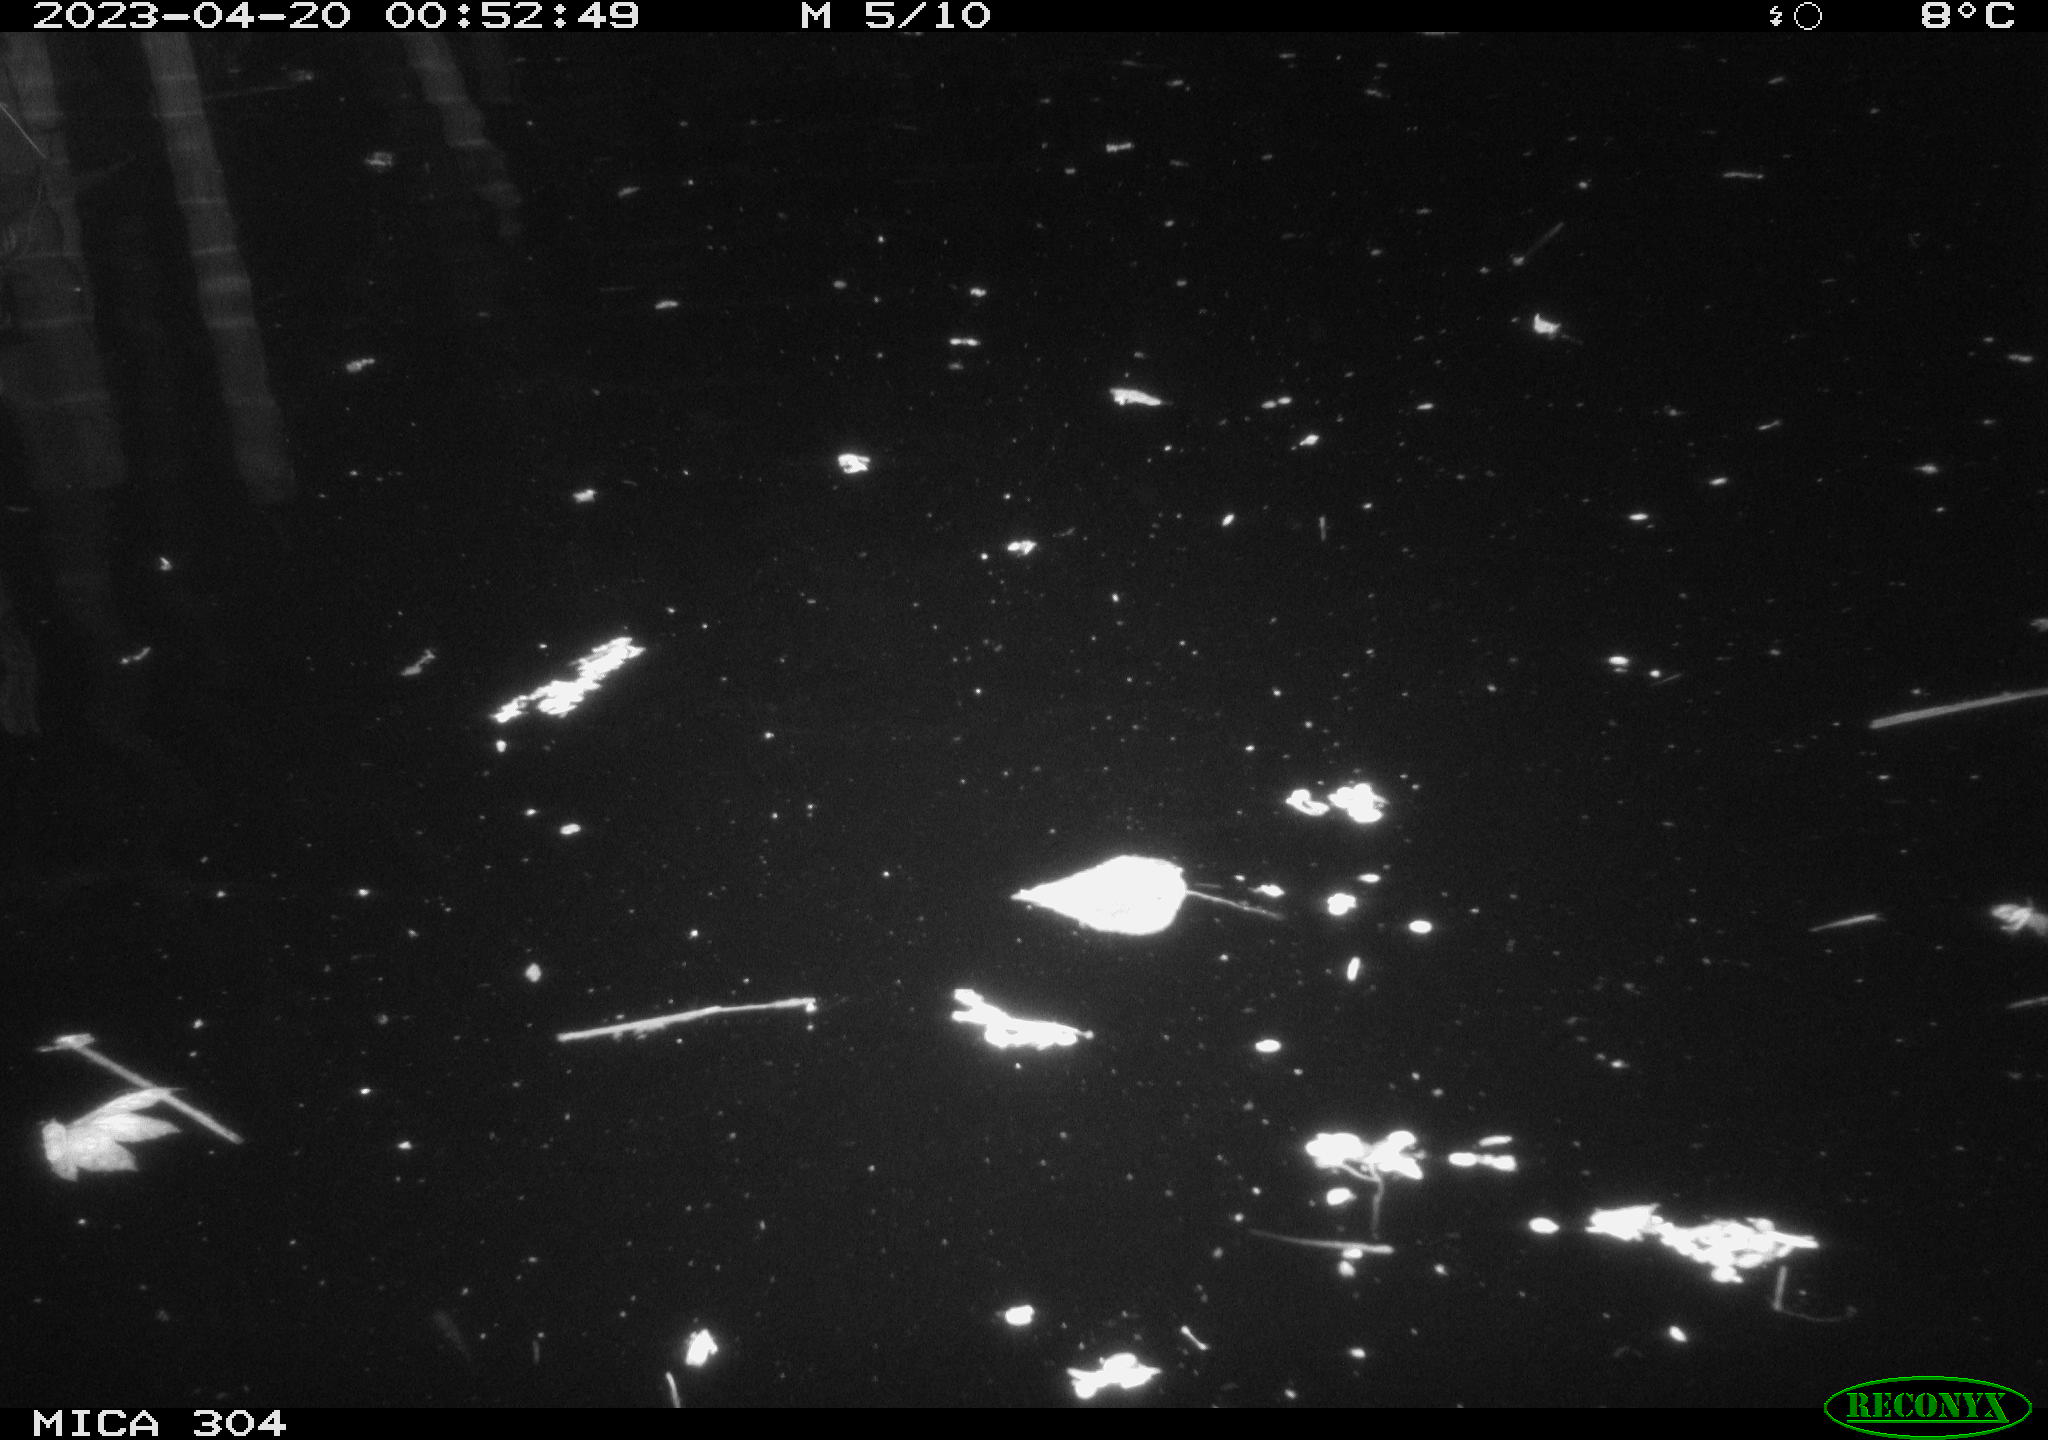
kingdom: Animalia
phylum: Chordata
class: Aves
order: Anseriformes
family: Anatidae
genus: Anas
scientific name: Anas
